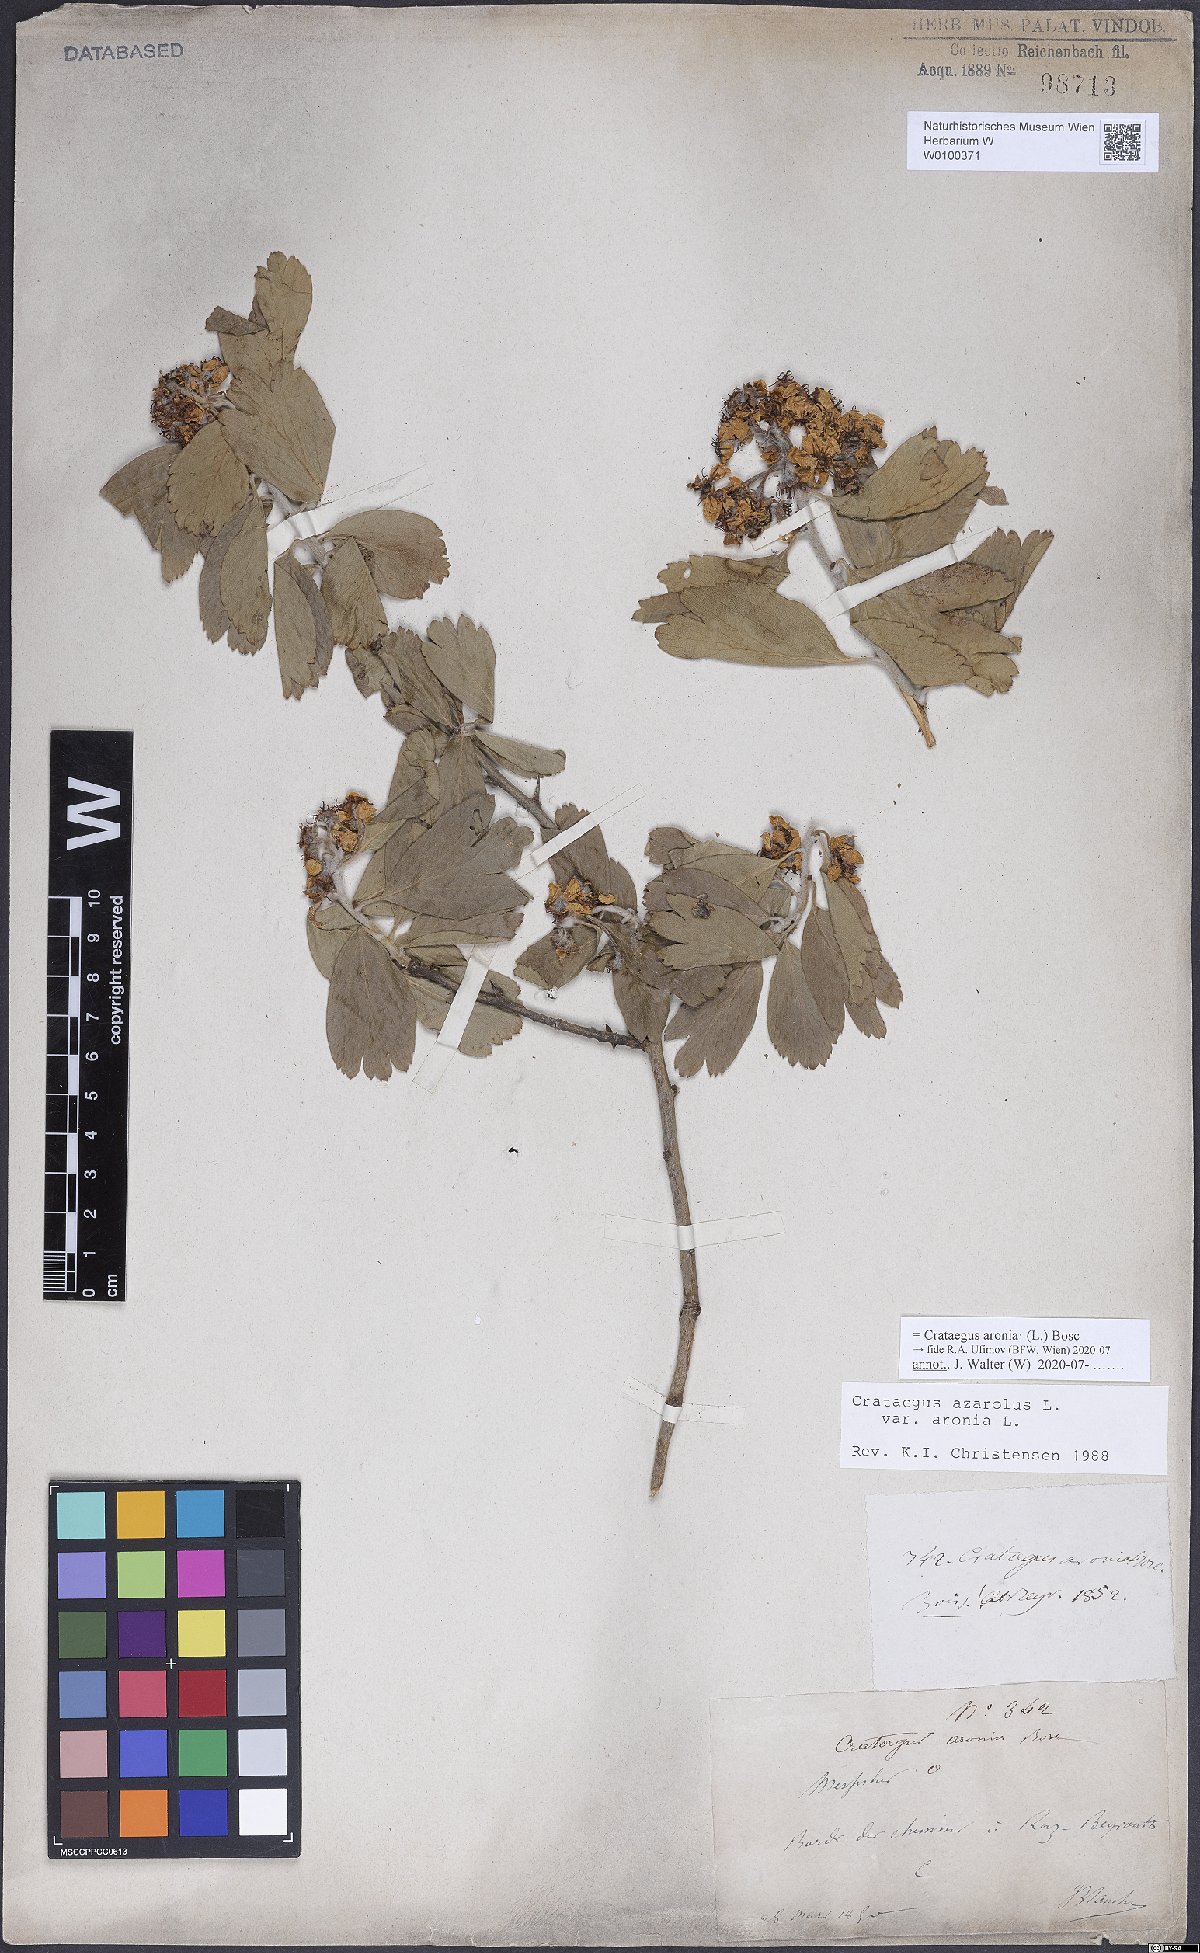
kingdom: Plantae
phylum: Tracheophyta
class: Magnoliopsida
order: Rosales
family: Rosaceae
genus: Crataegus
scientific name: Crataegus azarolus
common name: Azarole
